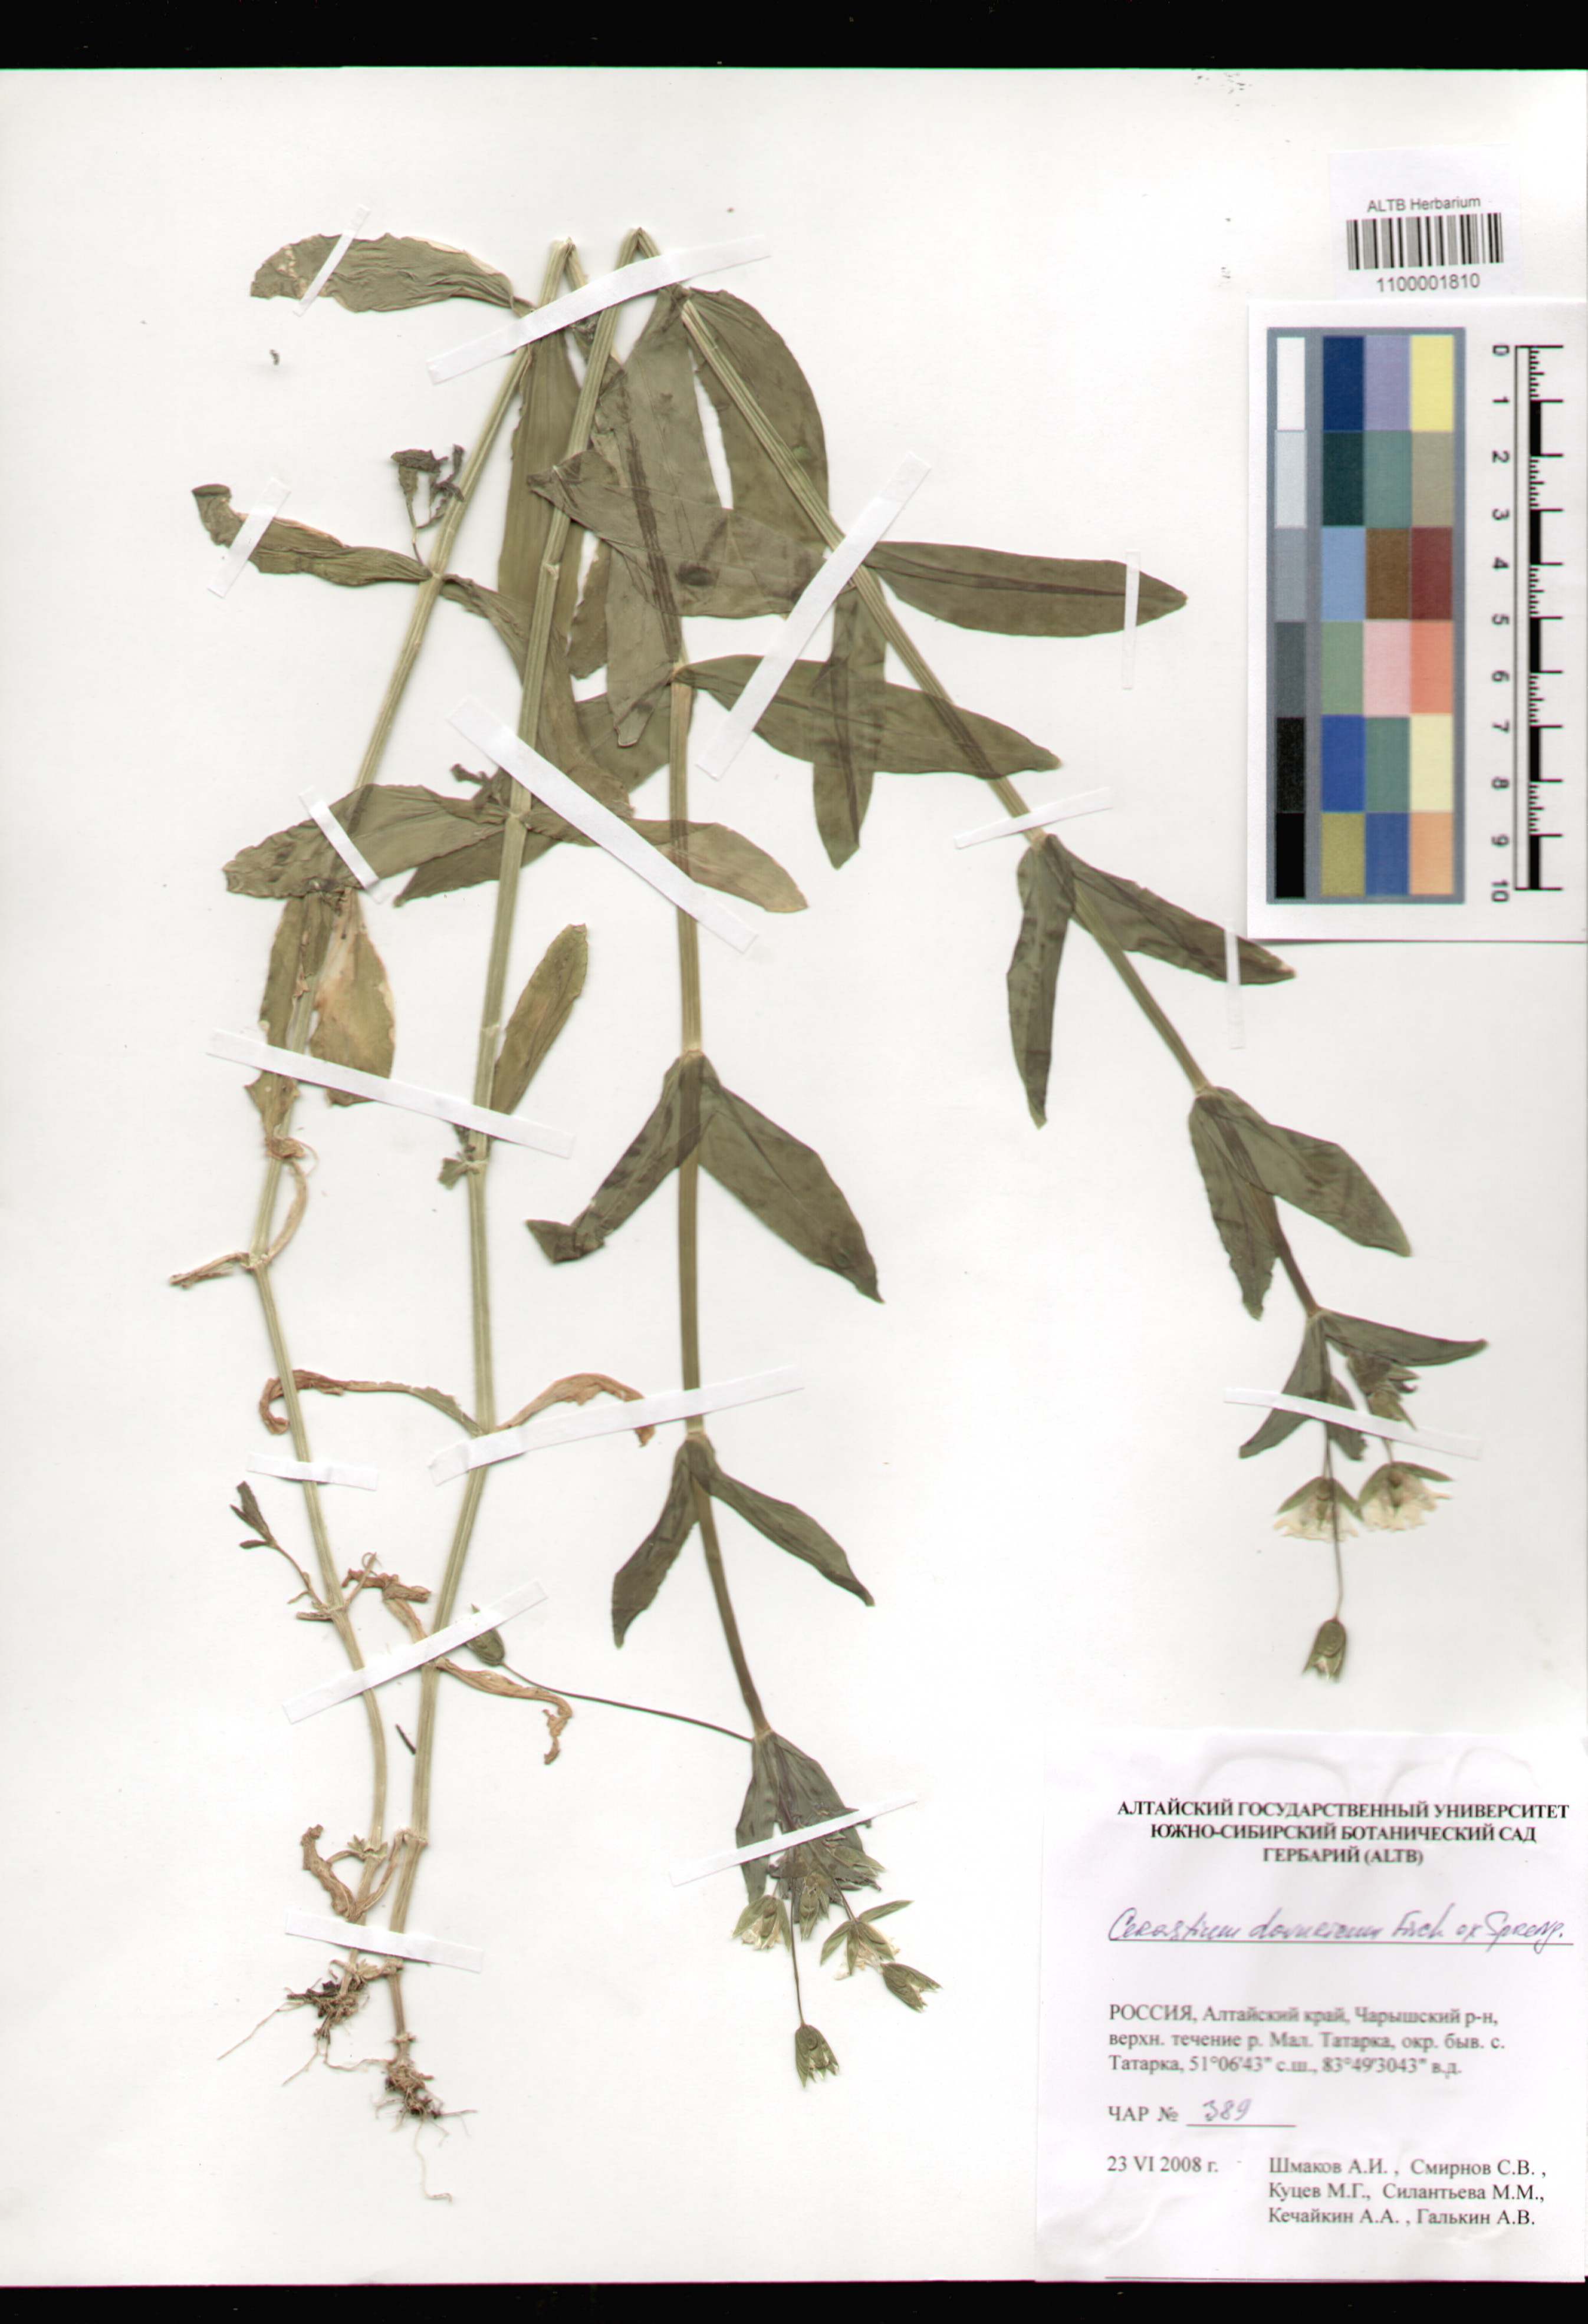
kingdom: Plantae
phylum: Tracheophyta
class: Magnoliopsida
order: Caryophyllales
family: Caryophyllaceae
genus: Dichodon
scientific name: Dichodon davuricum
